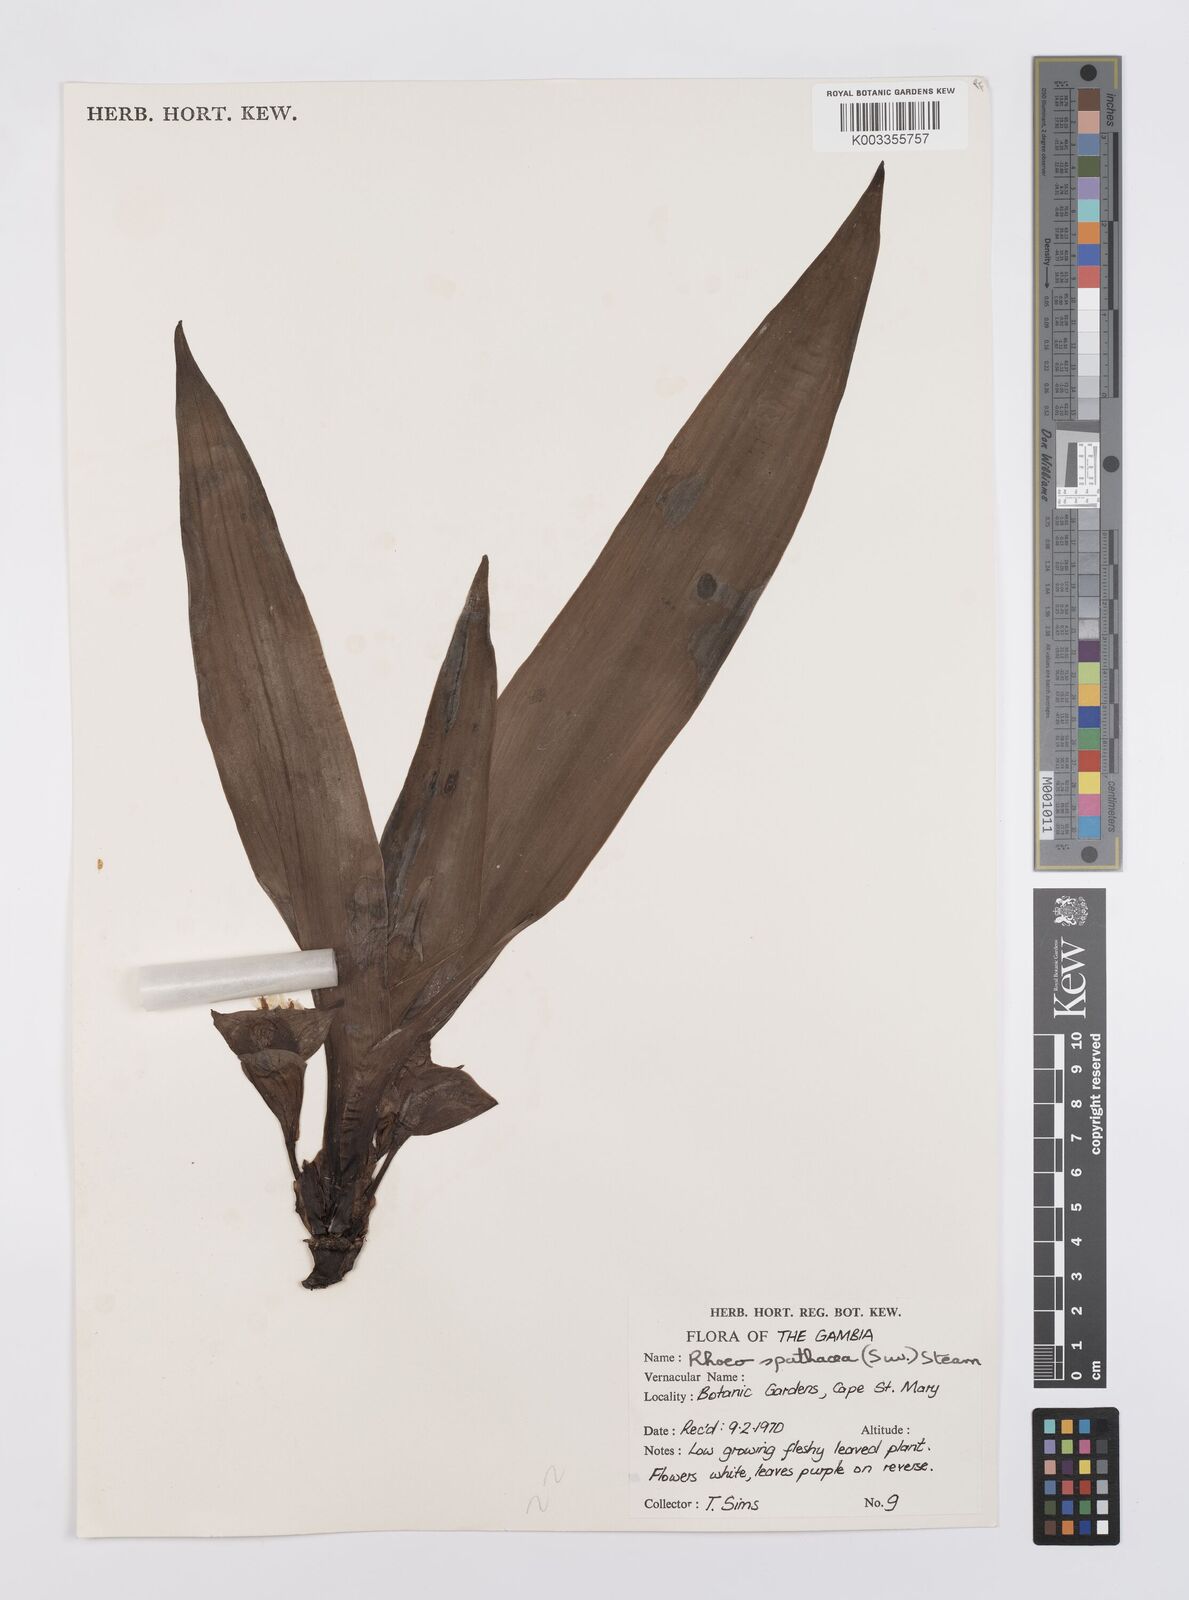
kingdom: Plantae
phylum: Tracheophyta
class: Liliopsida
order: Commelinales
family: Commelinaceae
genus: Tradescantia
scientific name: Tradescantia spathacea
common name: Boatlily
